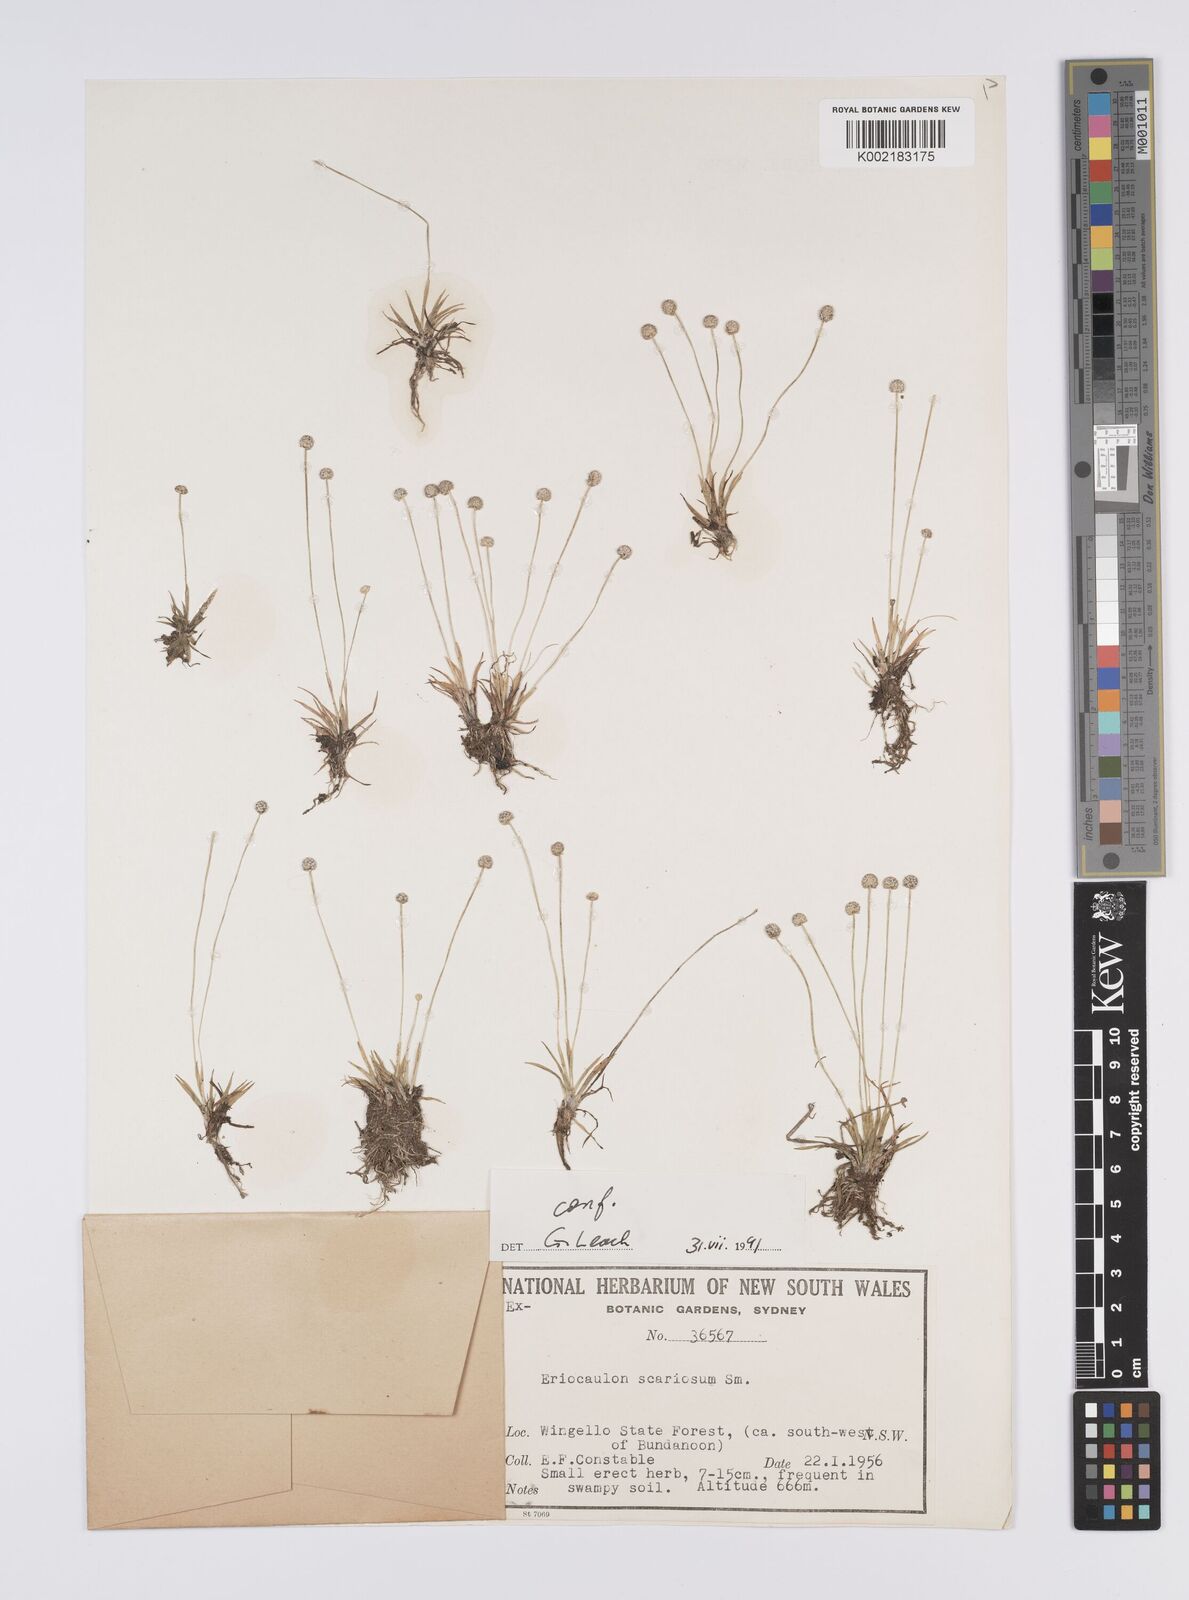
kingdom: Plantae
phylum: Tracheophyta
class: Liliopsida
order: Poales
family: Eriocaulaceae
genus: Eriocaulon
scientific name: Eriocaulon scariosum
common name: Rough pipewort
